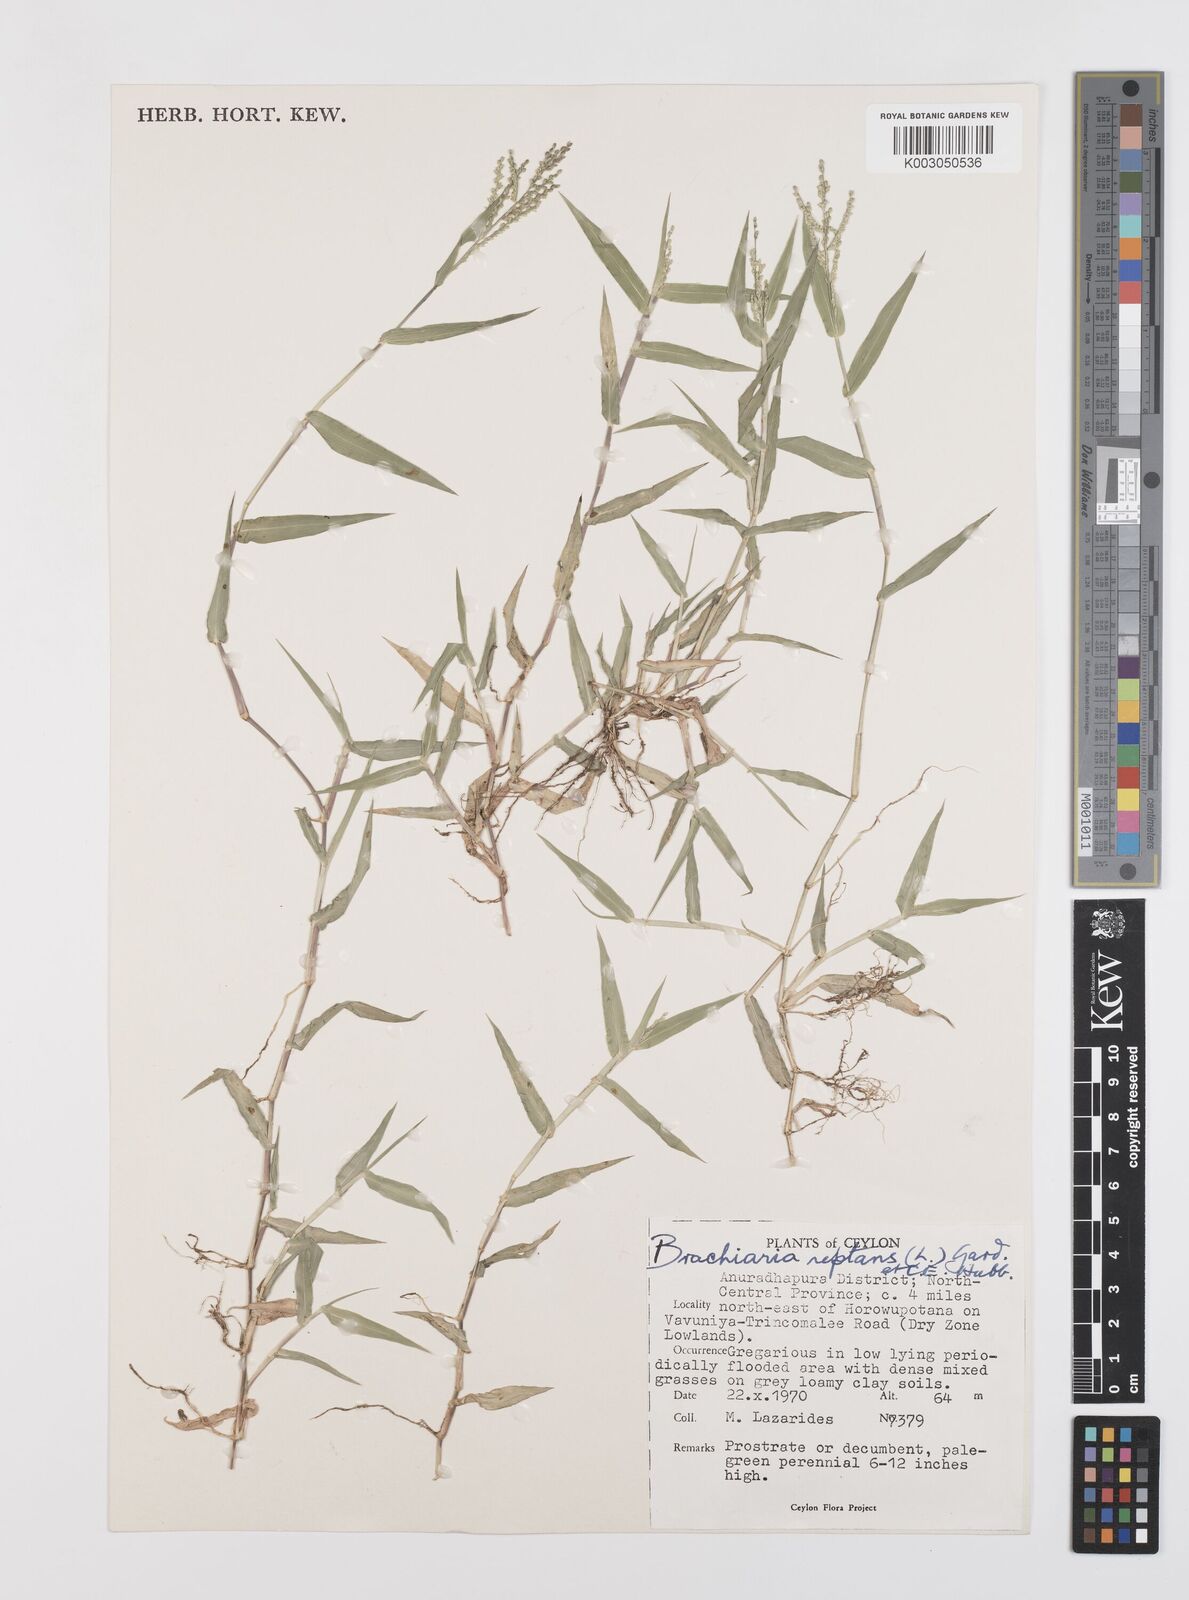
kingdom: Plantae
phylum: Tracheophyta
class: Liliopsida
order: Poales
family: Poaceae
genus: Urochloa
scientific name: Urochloa reptans
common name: Sprawling signalgrass
